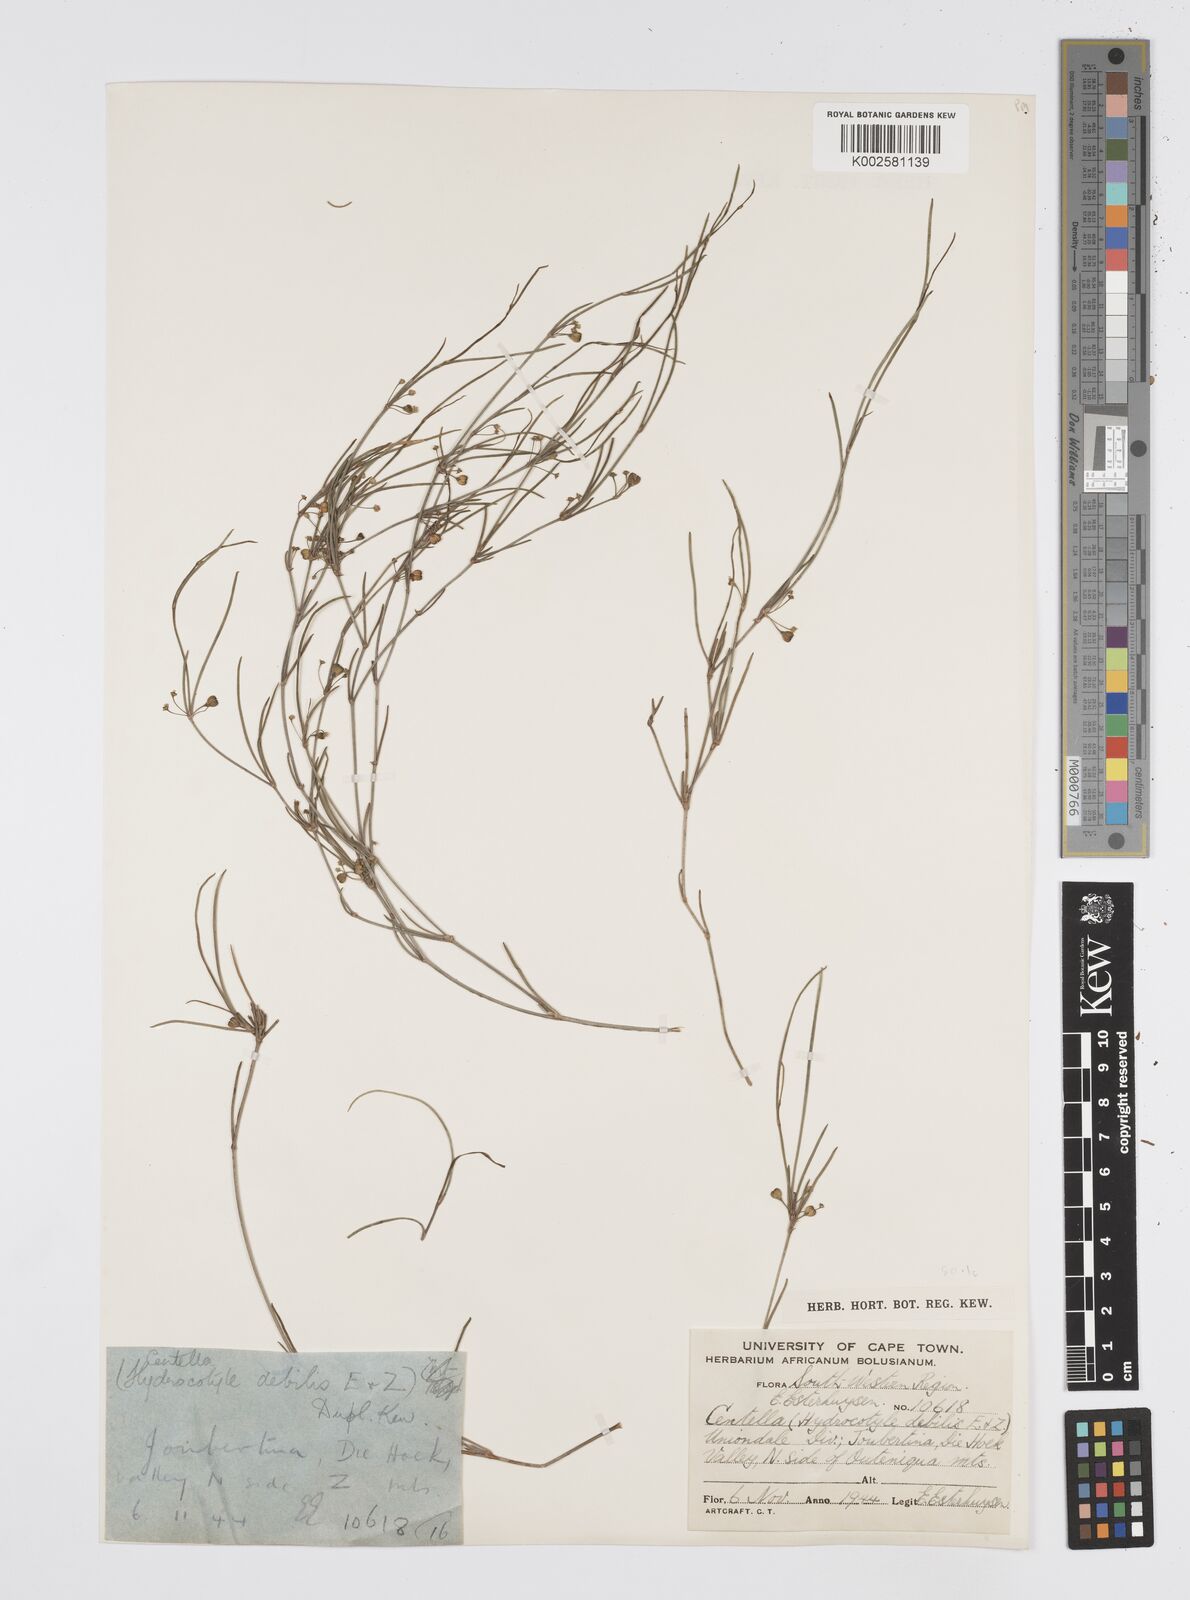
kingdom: Plantae
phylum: Tracheophyta
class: Magnoliopsida
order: Apiales
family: Apiaceae
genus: Centella
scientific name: Centella debilis
